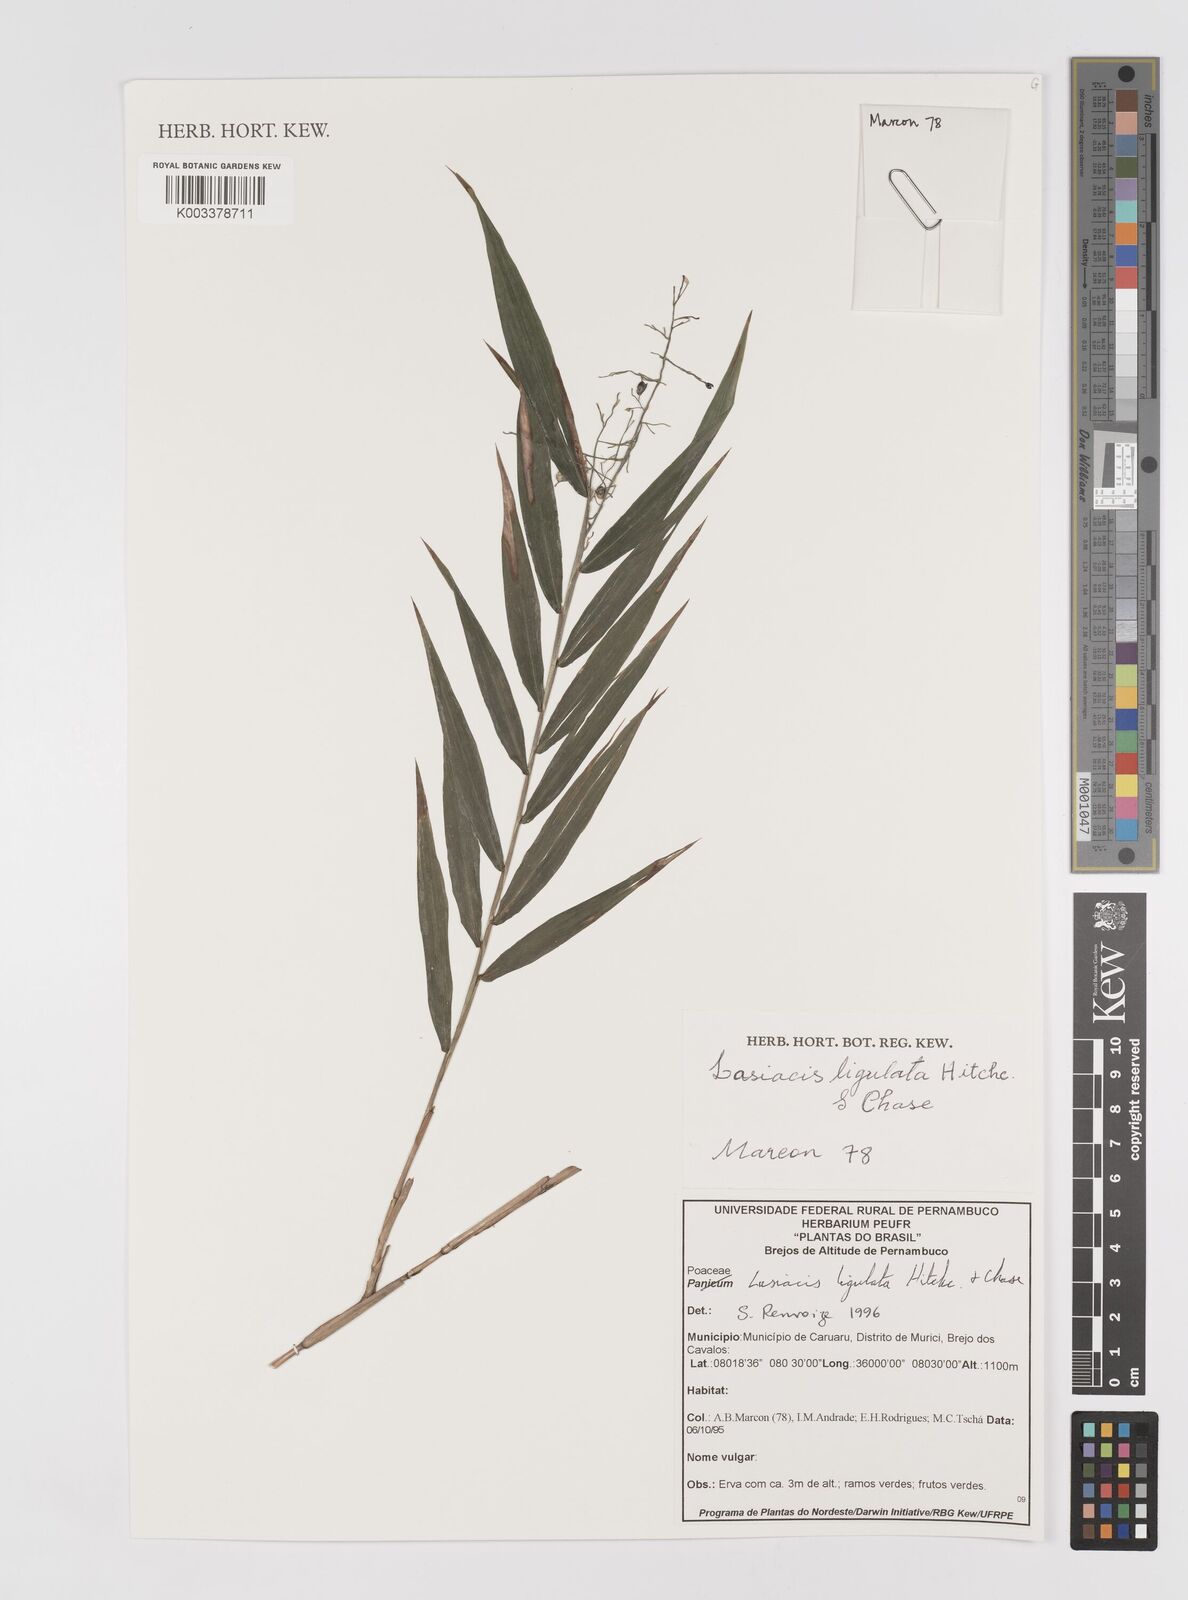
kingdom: Plantae
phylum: Tracheophyta
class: Liliopsida
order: Poales
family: Poaceae
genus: Lasiacis
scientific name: Lasiacis ligulata
